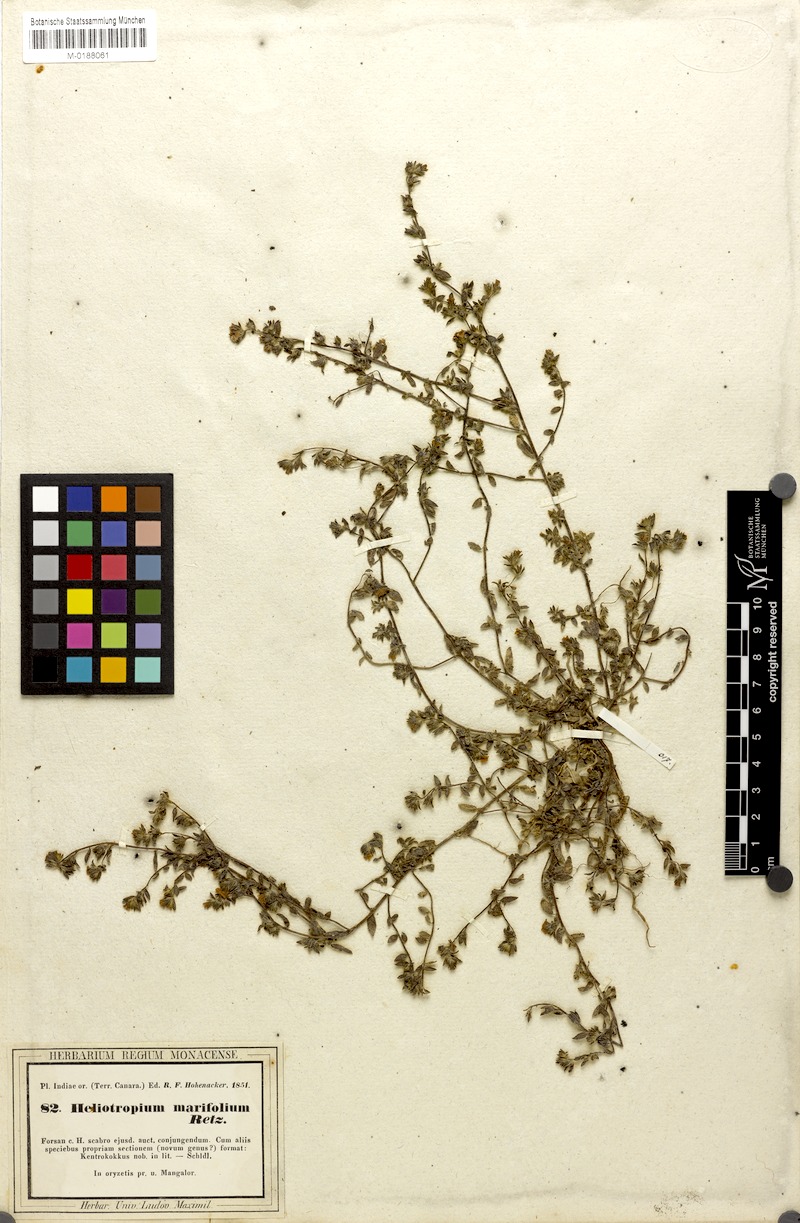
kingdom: Plantae
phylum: Tracheophyta
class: Magnoliopsida
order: Boraginales
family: Heliotropiaceae
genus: Euploca
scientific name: Euploca marifolia
